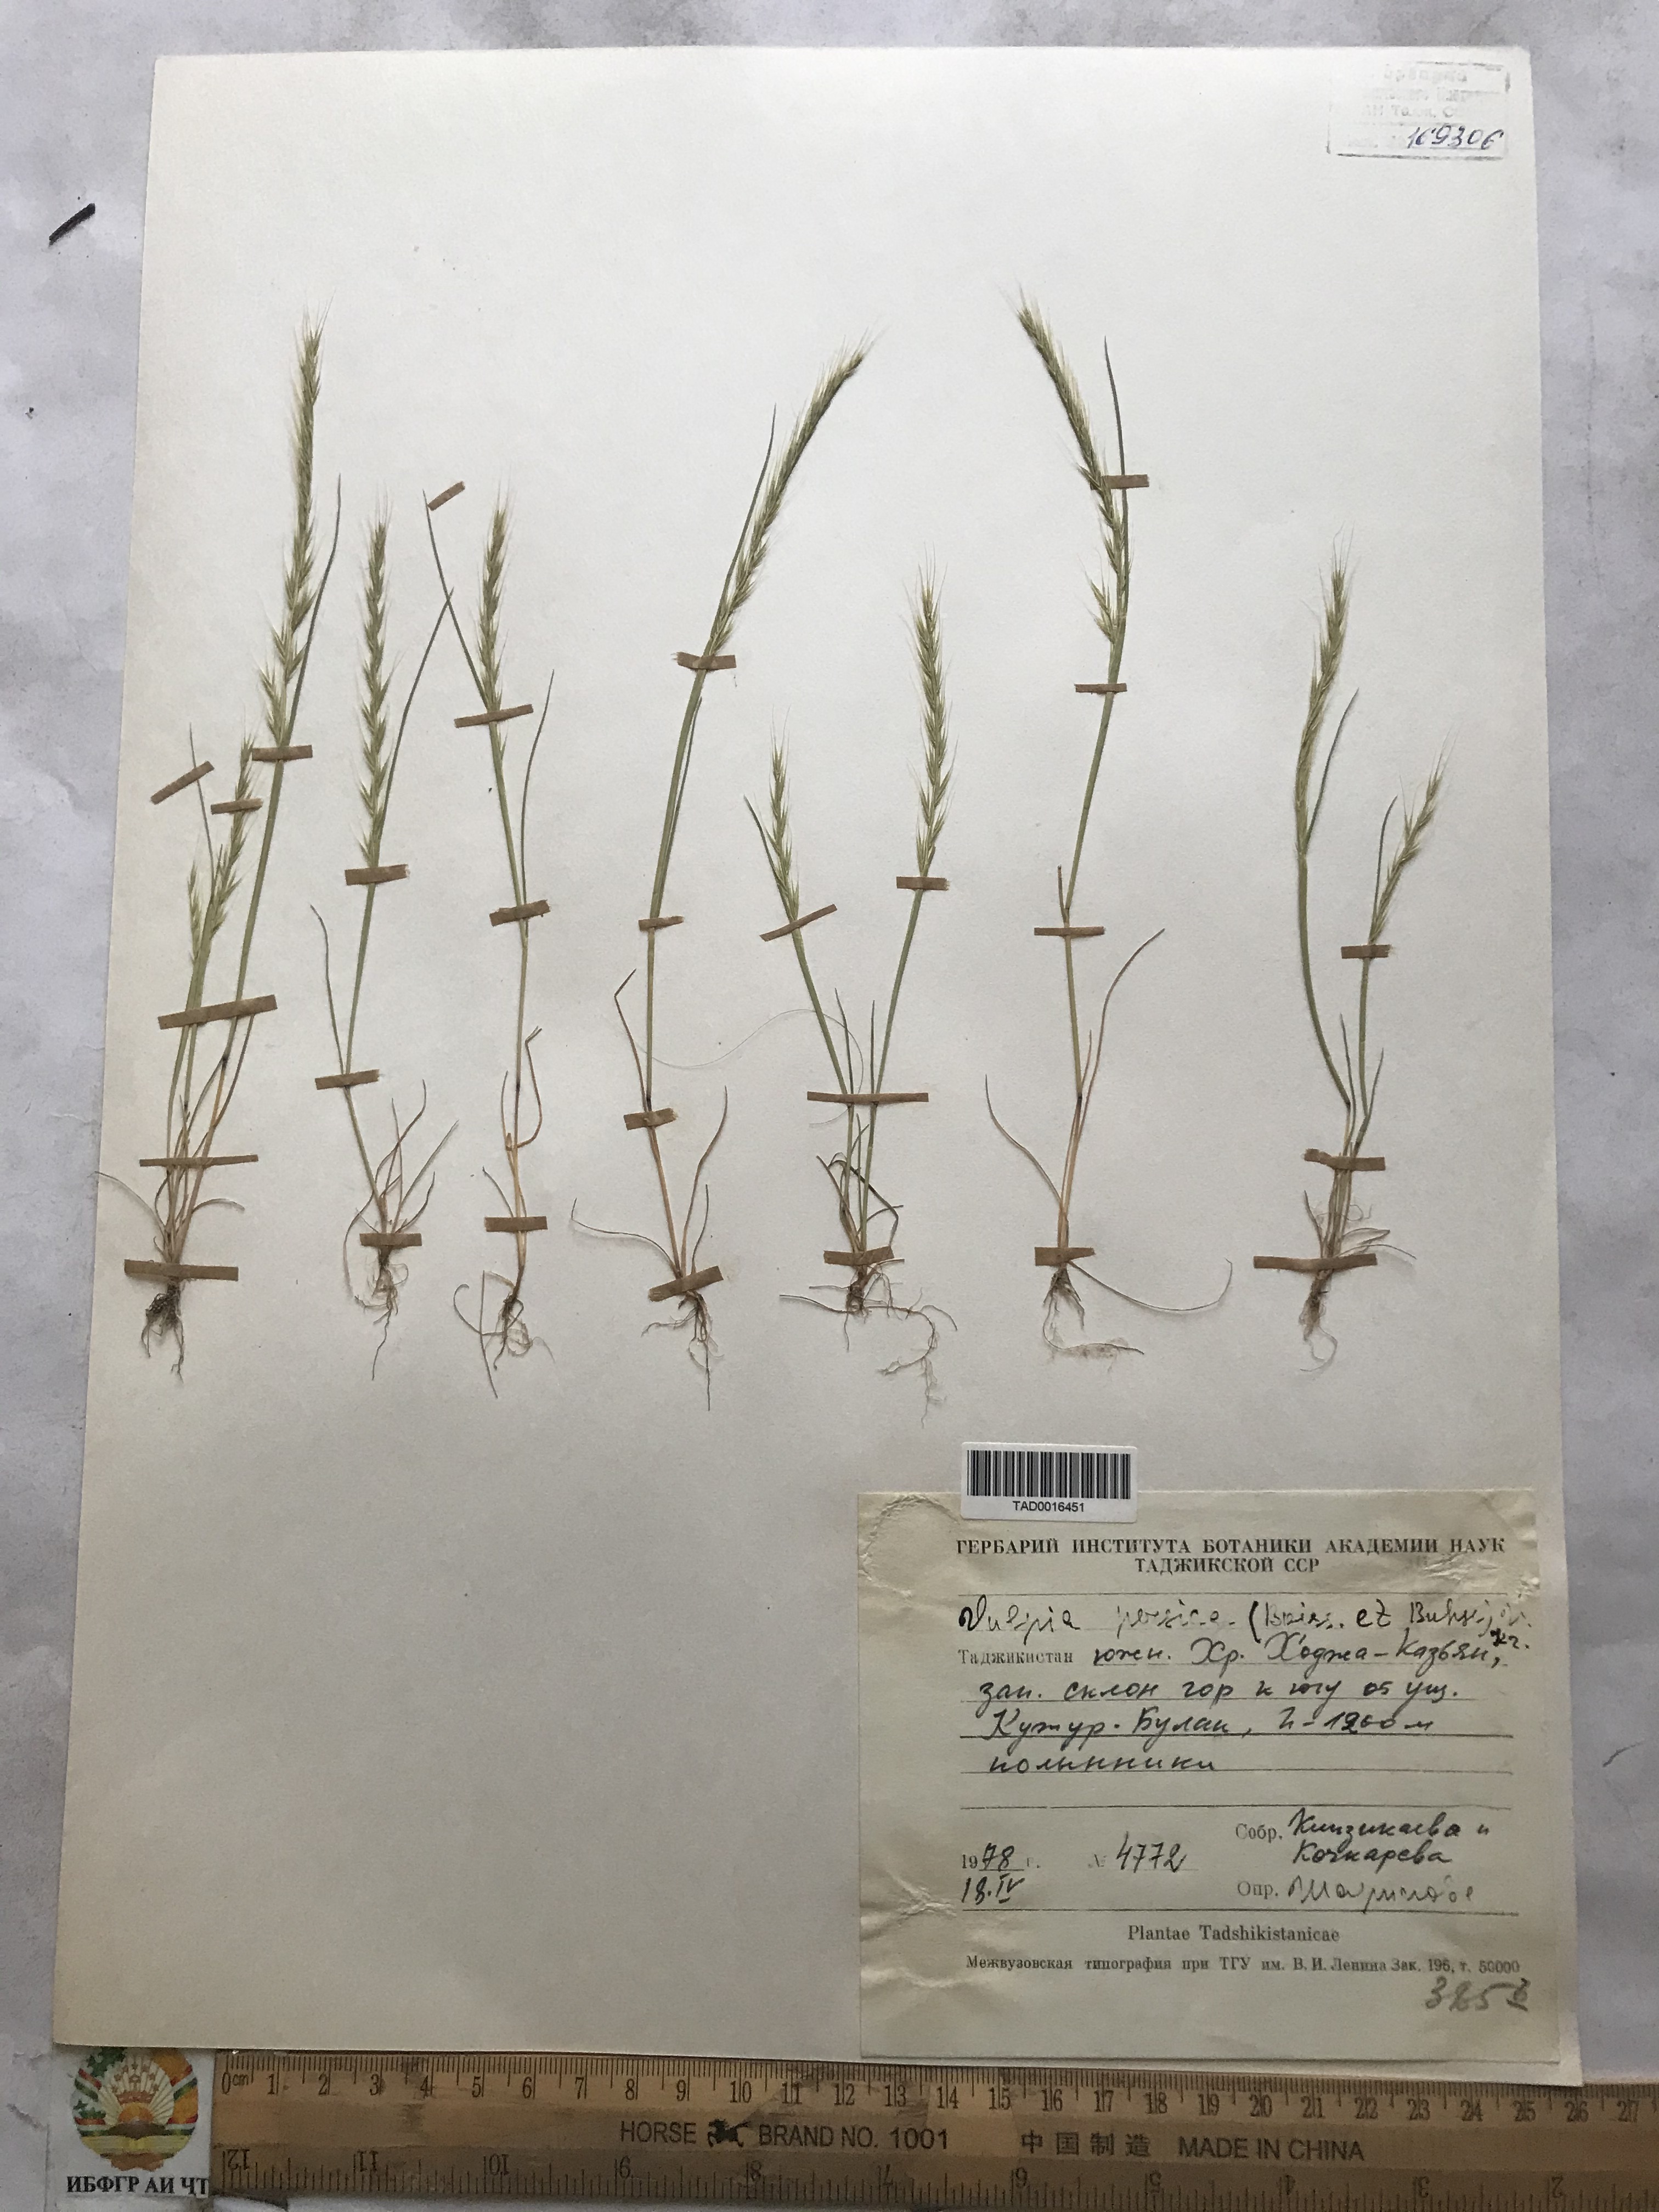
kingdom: Plantae
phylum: Tracheophyta
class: Liliopsida
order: Poales
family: Poaceae
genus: Festuca
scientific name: Festuca Vulpia persica
